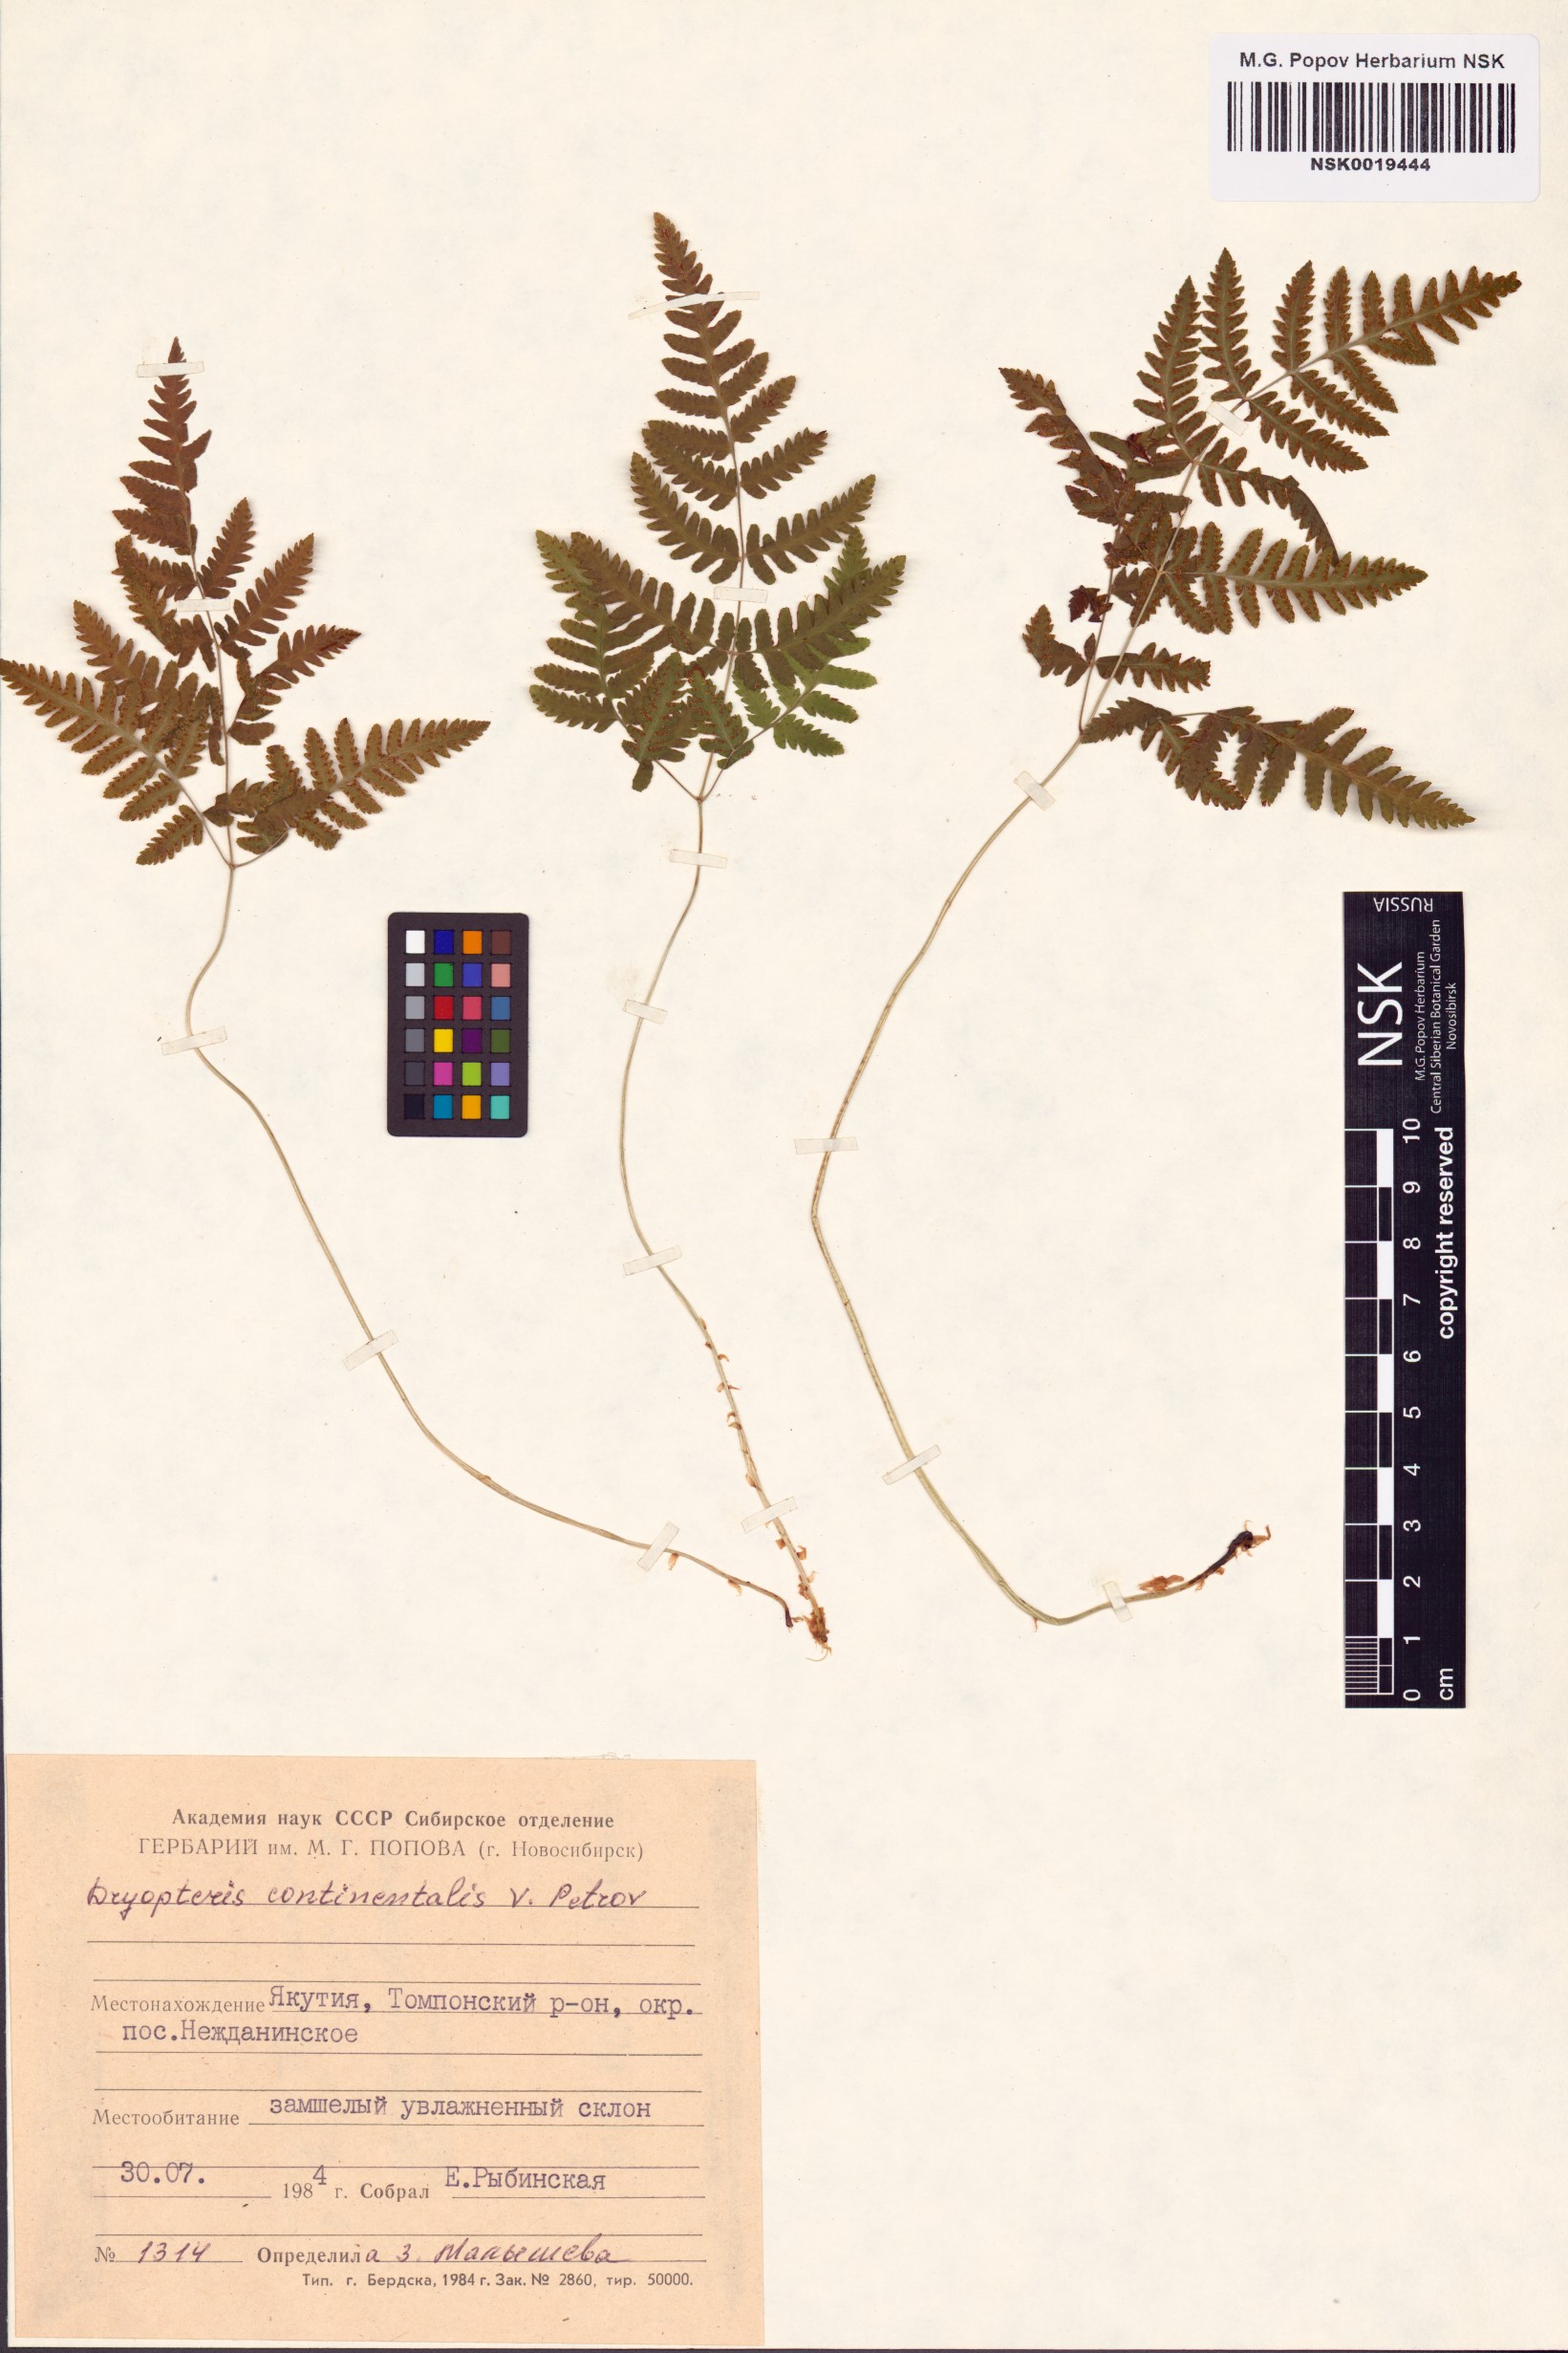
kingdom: Plantae
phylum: Tracheophyta
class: Polypodiopsida
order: Polypodiales
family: Cystopteridaceae
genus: Gymnocarpium
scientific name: Gymnocarpium continentale
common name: Asian oak fern
